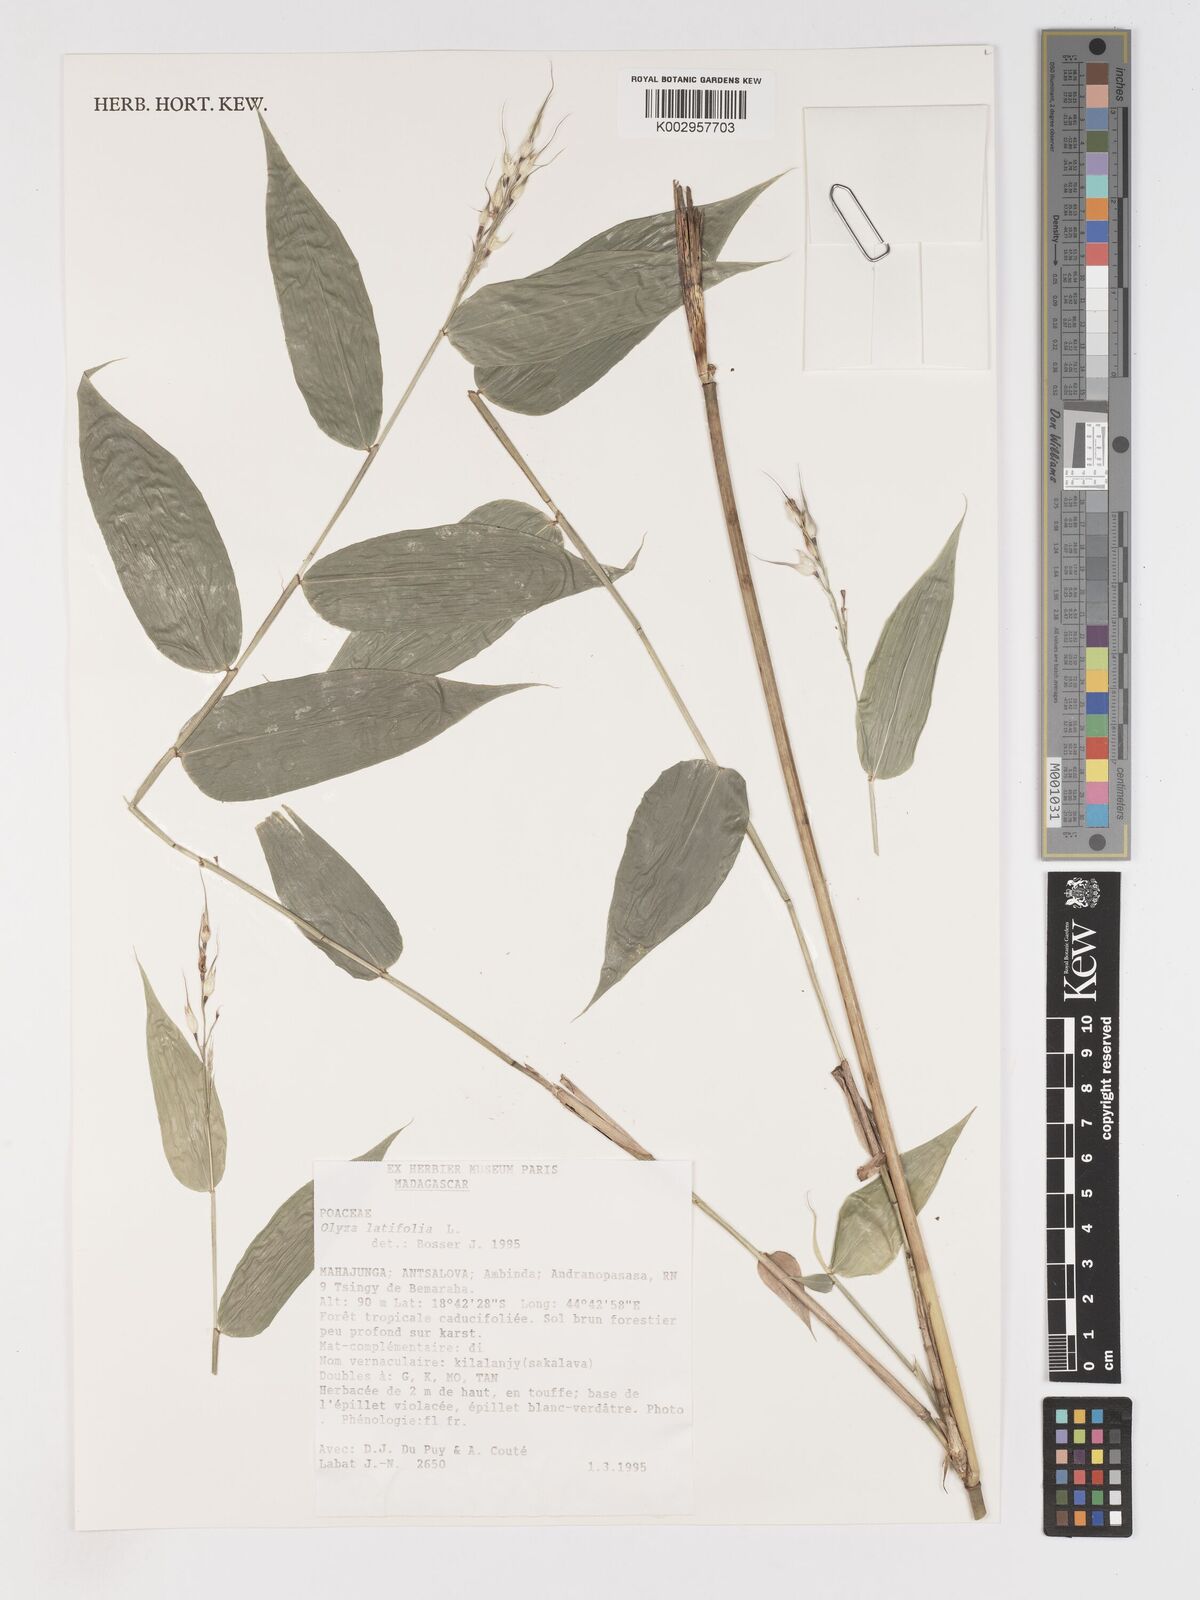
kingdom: Plantae
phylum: Tracheophyta
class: Liliopsida
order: Poales
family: Poaceae
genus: Olyra
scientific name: Olyra latifolia
